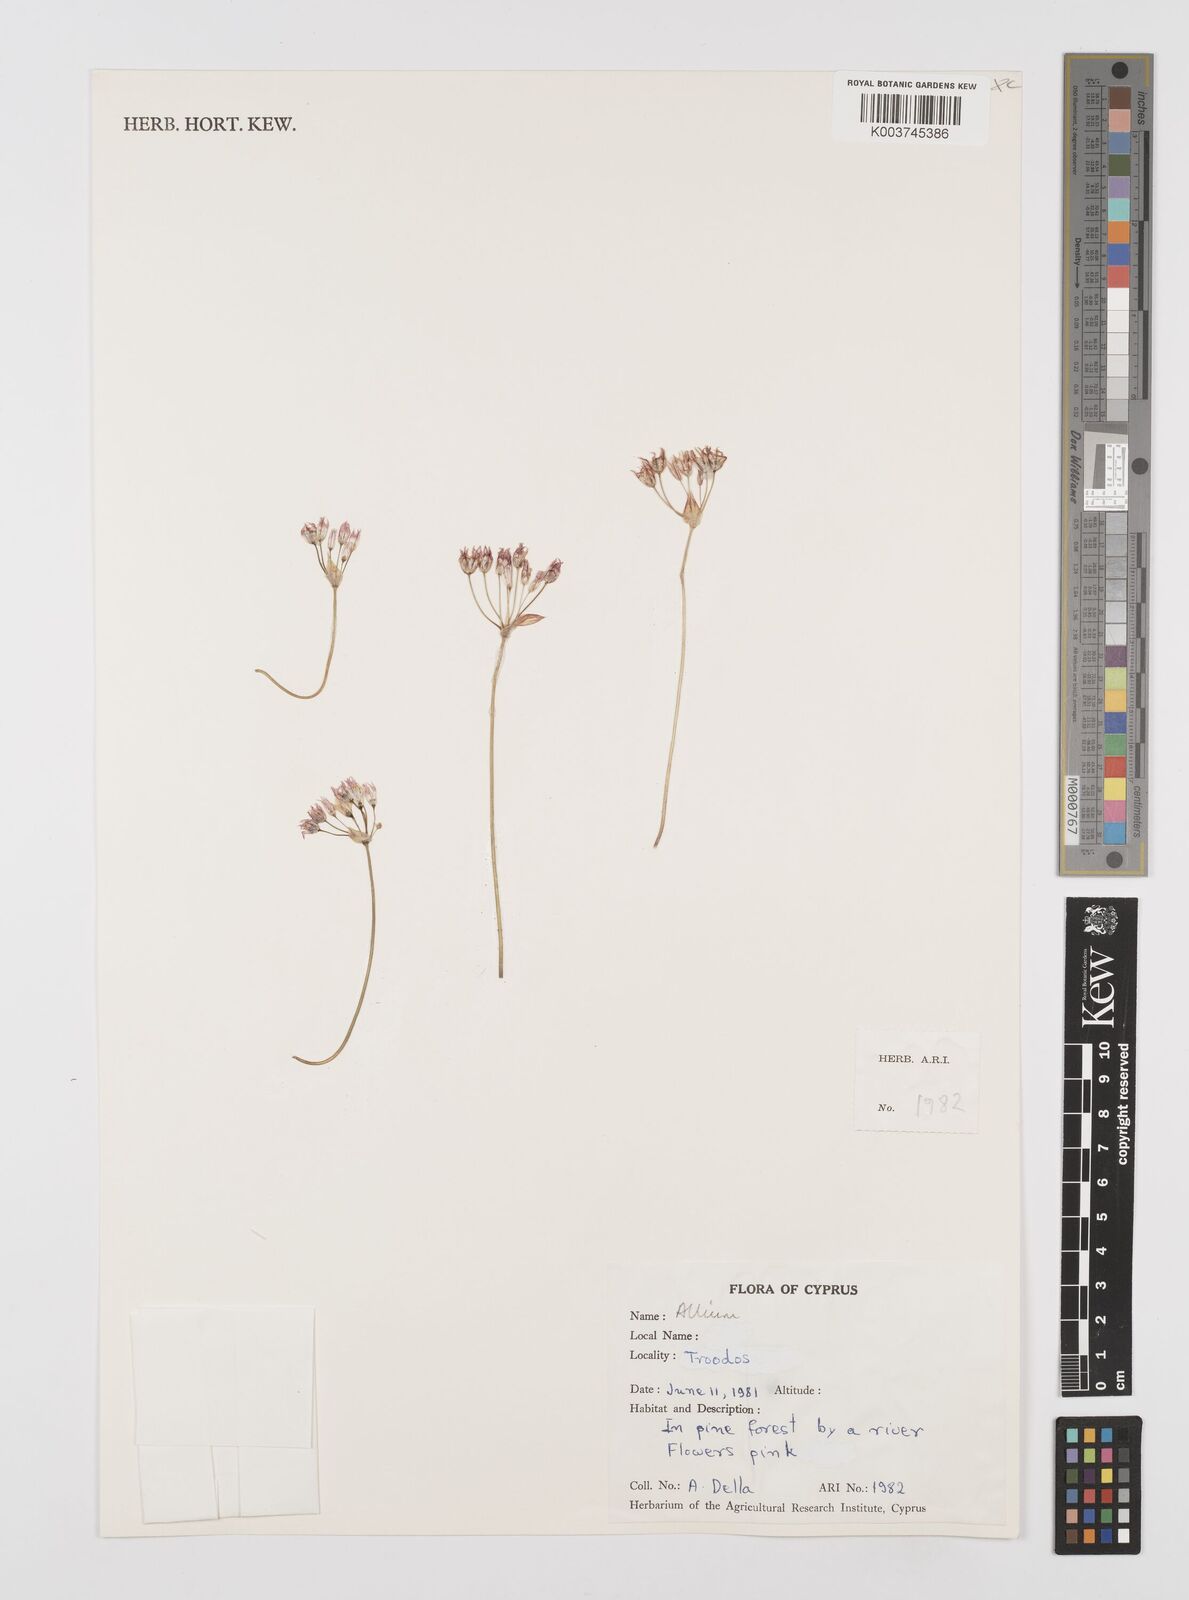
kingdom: Plantae
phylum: Tracheophyta
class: Liliopsida
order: Asparagales
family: Amaryllidaceae
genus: Allium
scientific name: Allium
